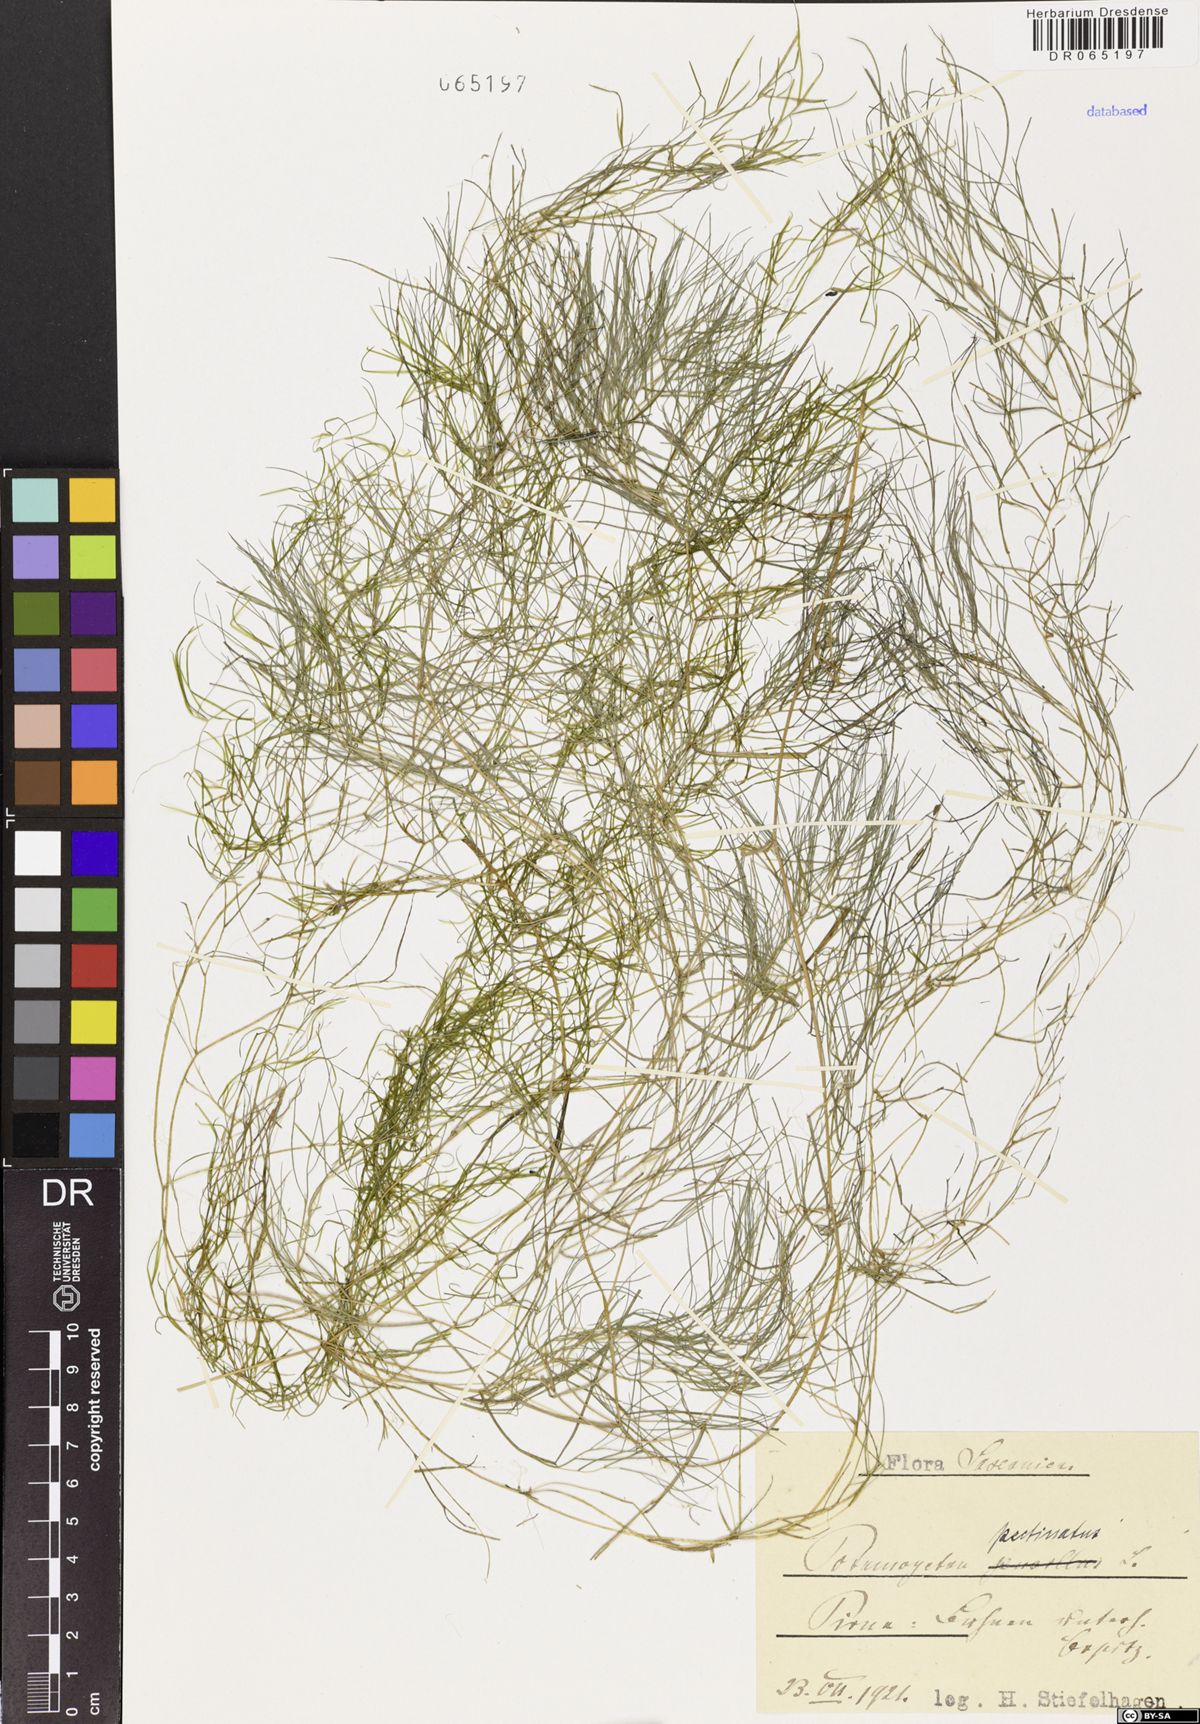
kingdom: Plantae
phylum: Tracheophyta
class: Liliopsida
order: Alismatales
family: Potamogetonaceae
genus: Stuckenia
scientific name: Stuckenia pectinata
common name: Sago pondweed
